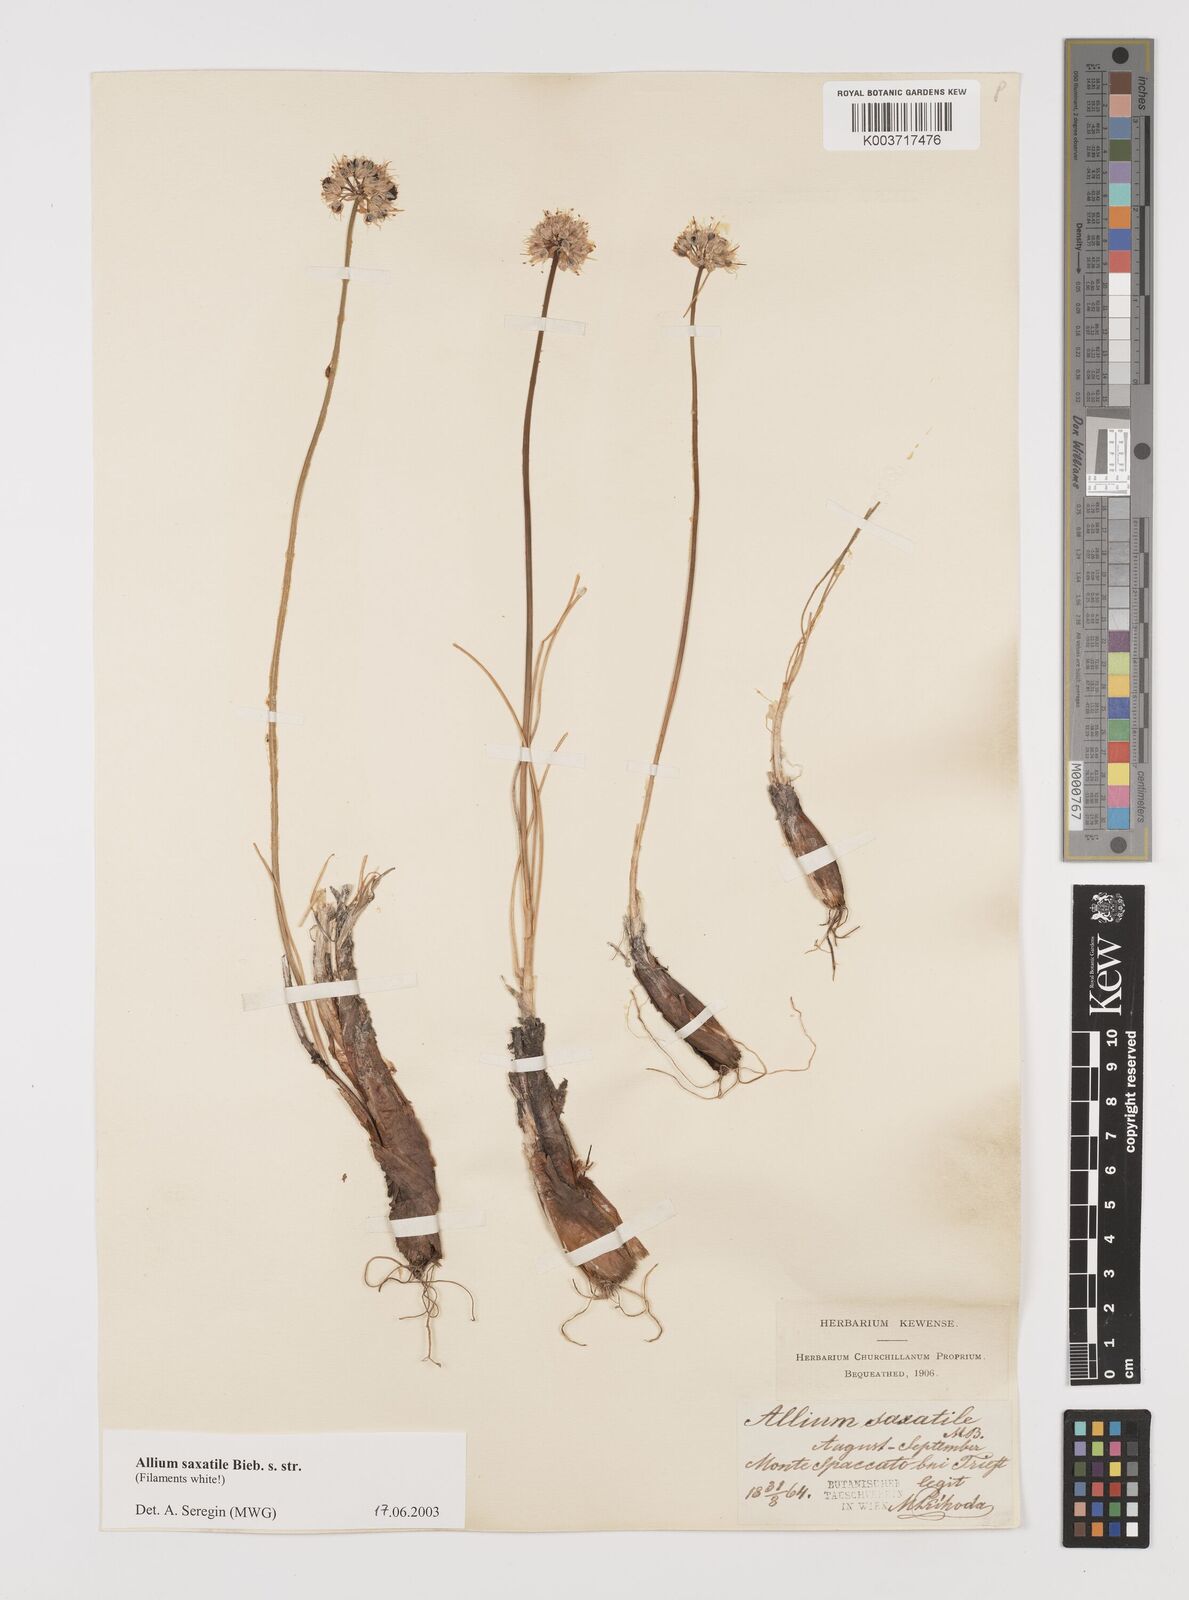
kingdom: Plantae
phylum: Tracheophyta
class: Liliopsida
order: Asparagales
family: Amaryllidaceae
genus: Allium
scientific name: Allium saxatile
